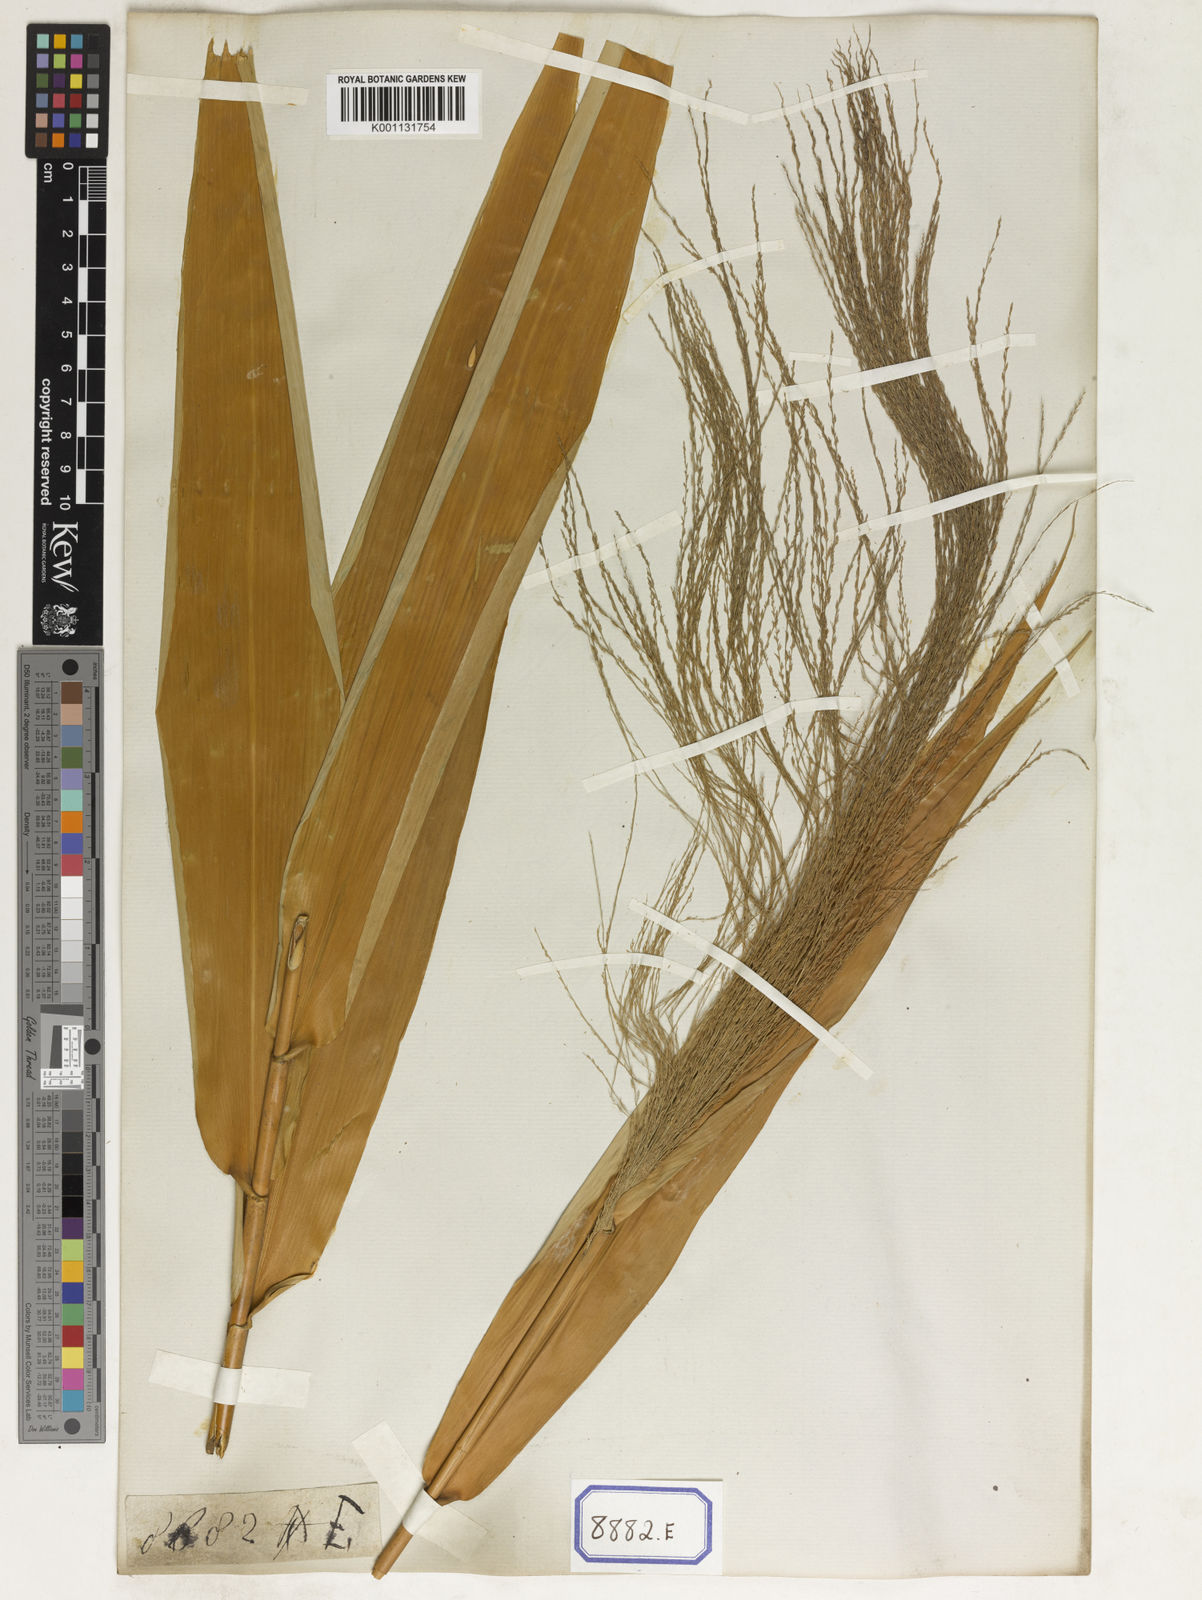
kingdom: Plantae
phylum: Tracheophyta
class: Liliopsida
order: Poales
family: Poaceae
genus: Thysanolaena
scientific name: Thysanolaena latifolia
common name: Tiger grass
